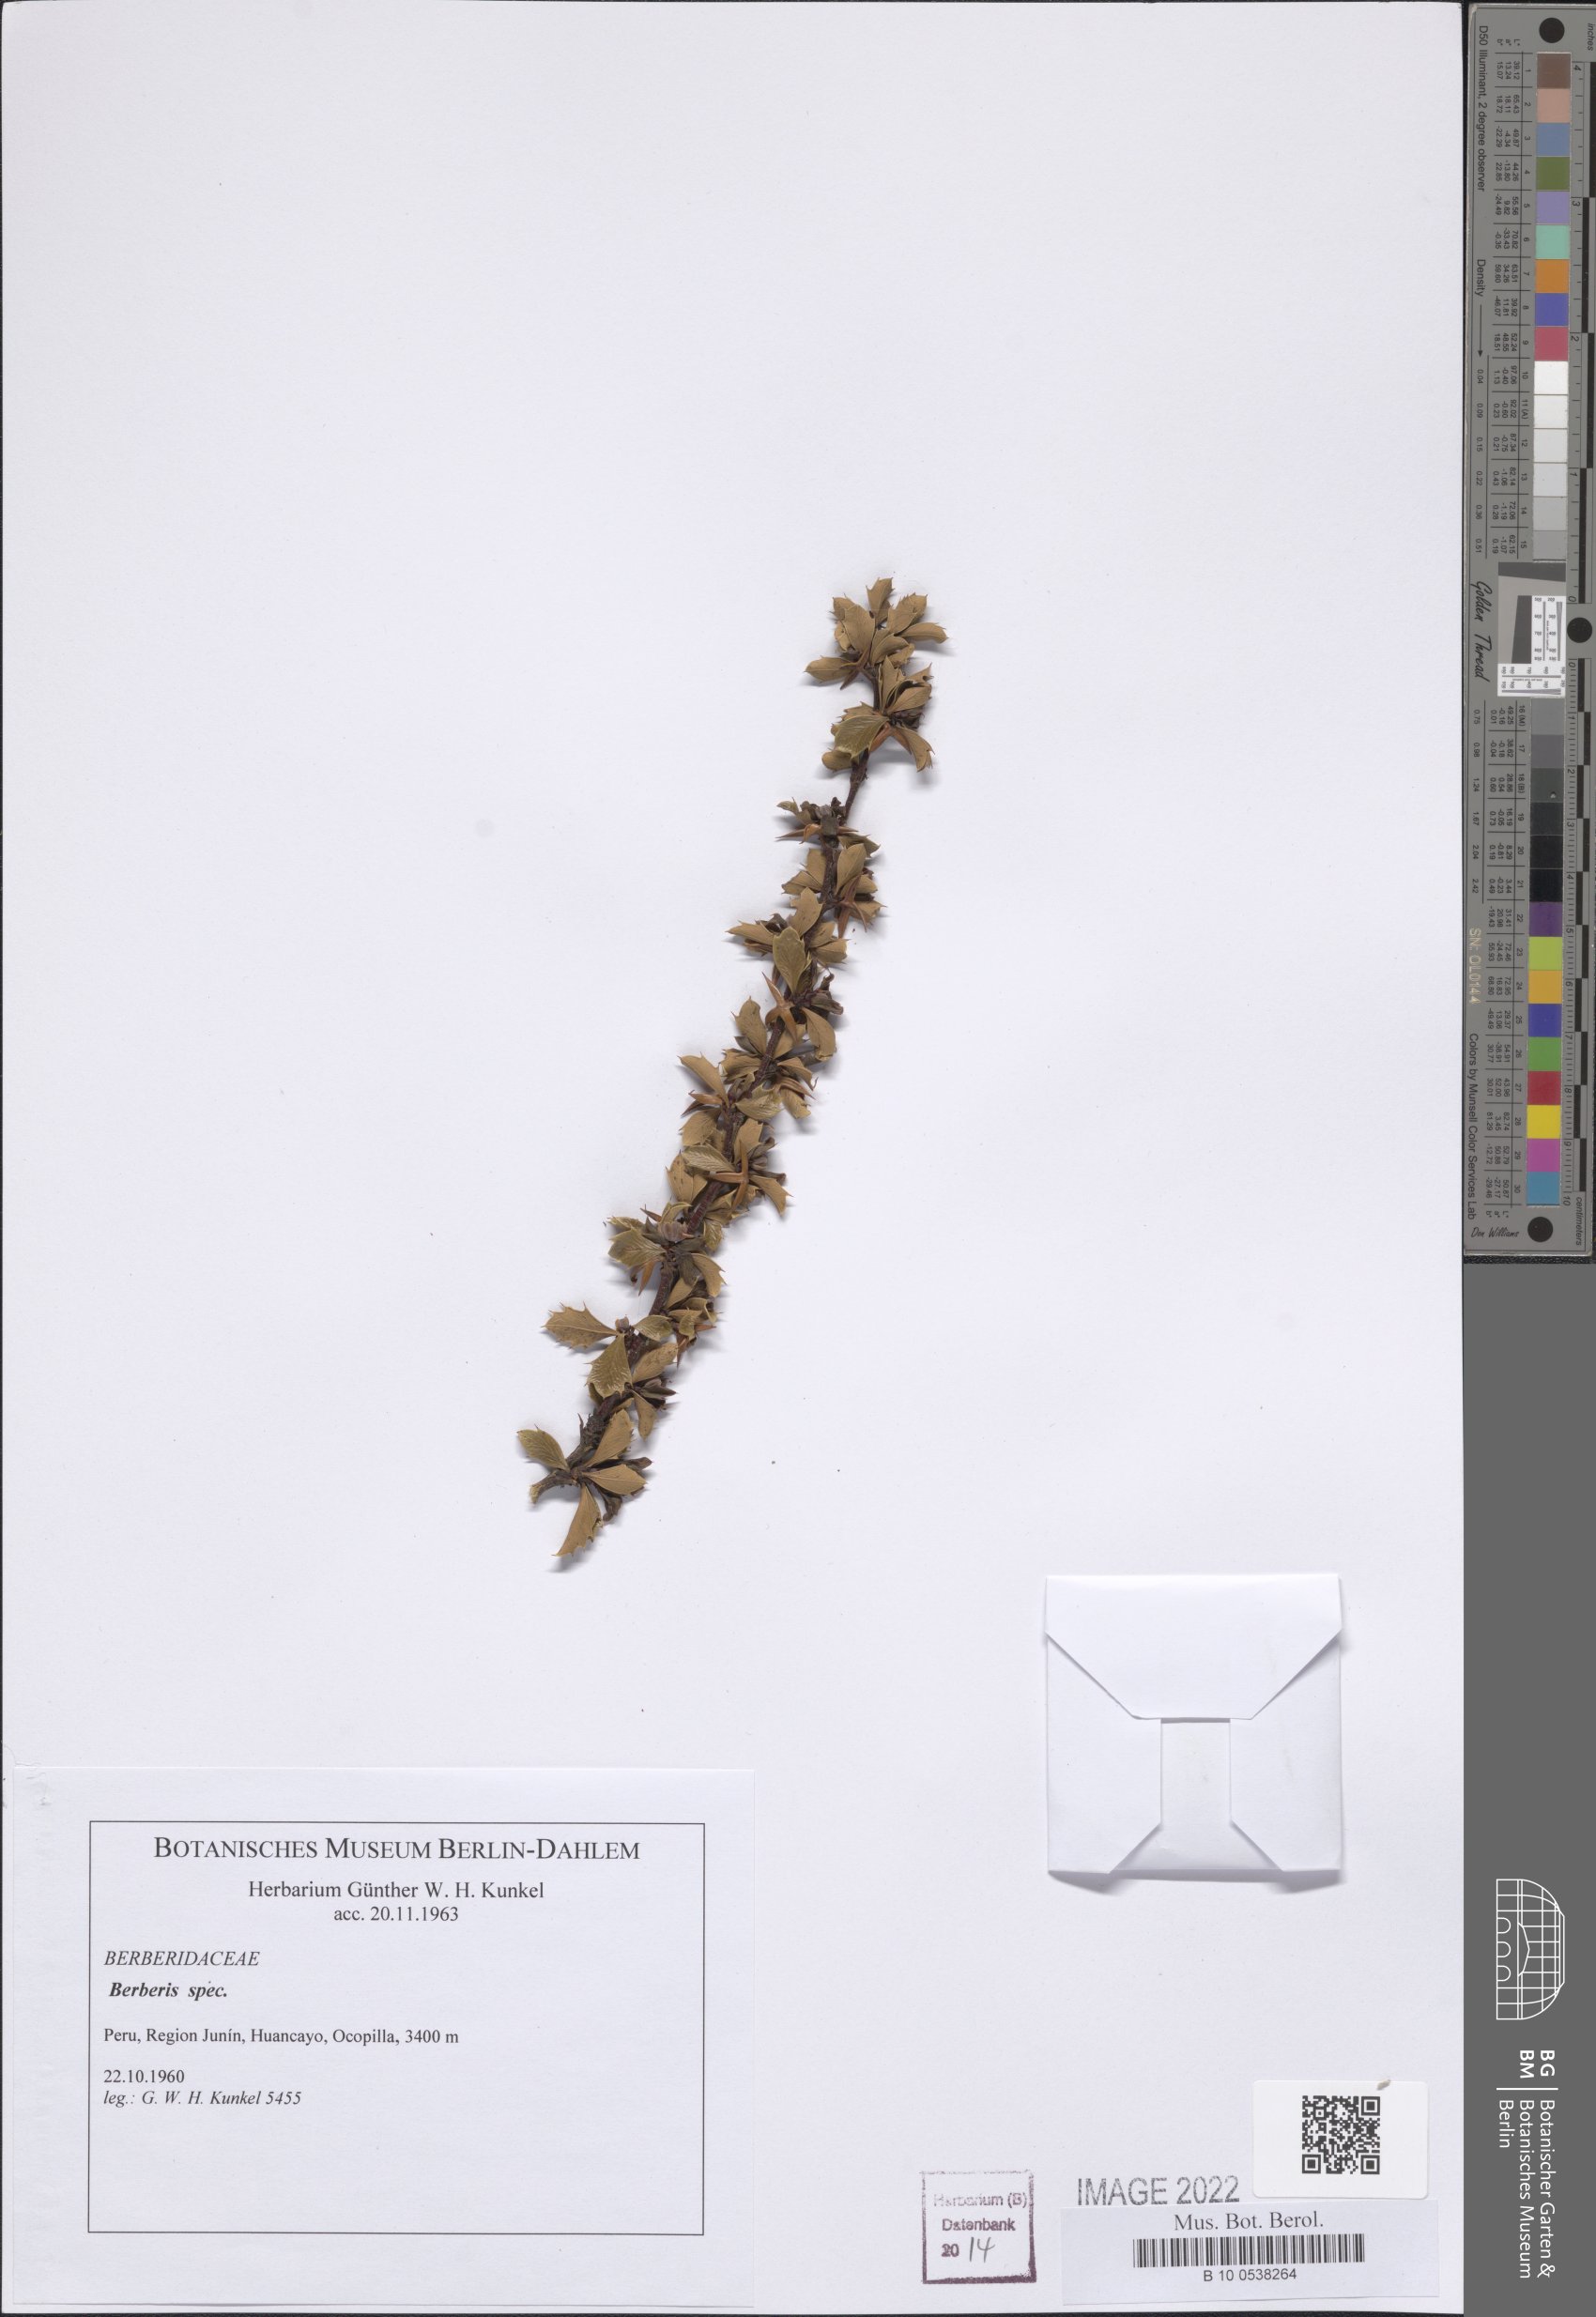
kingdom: Plantae
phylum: Tracheophyta
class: Magnoliopsida
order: Ranunculales
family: Berberidaceae
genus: Berberis
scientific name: Berberis
